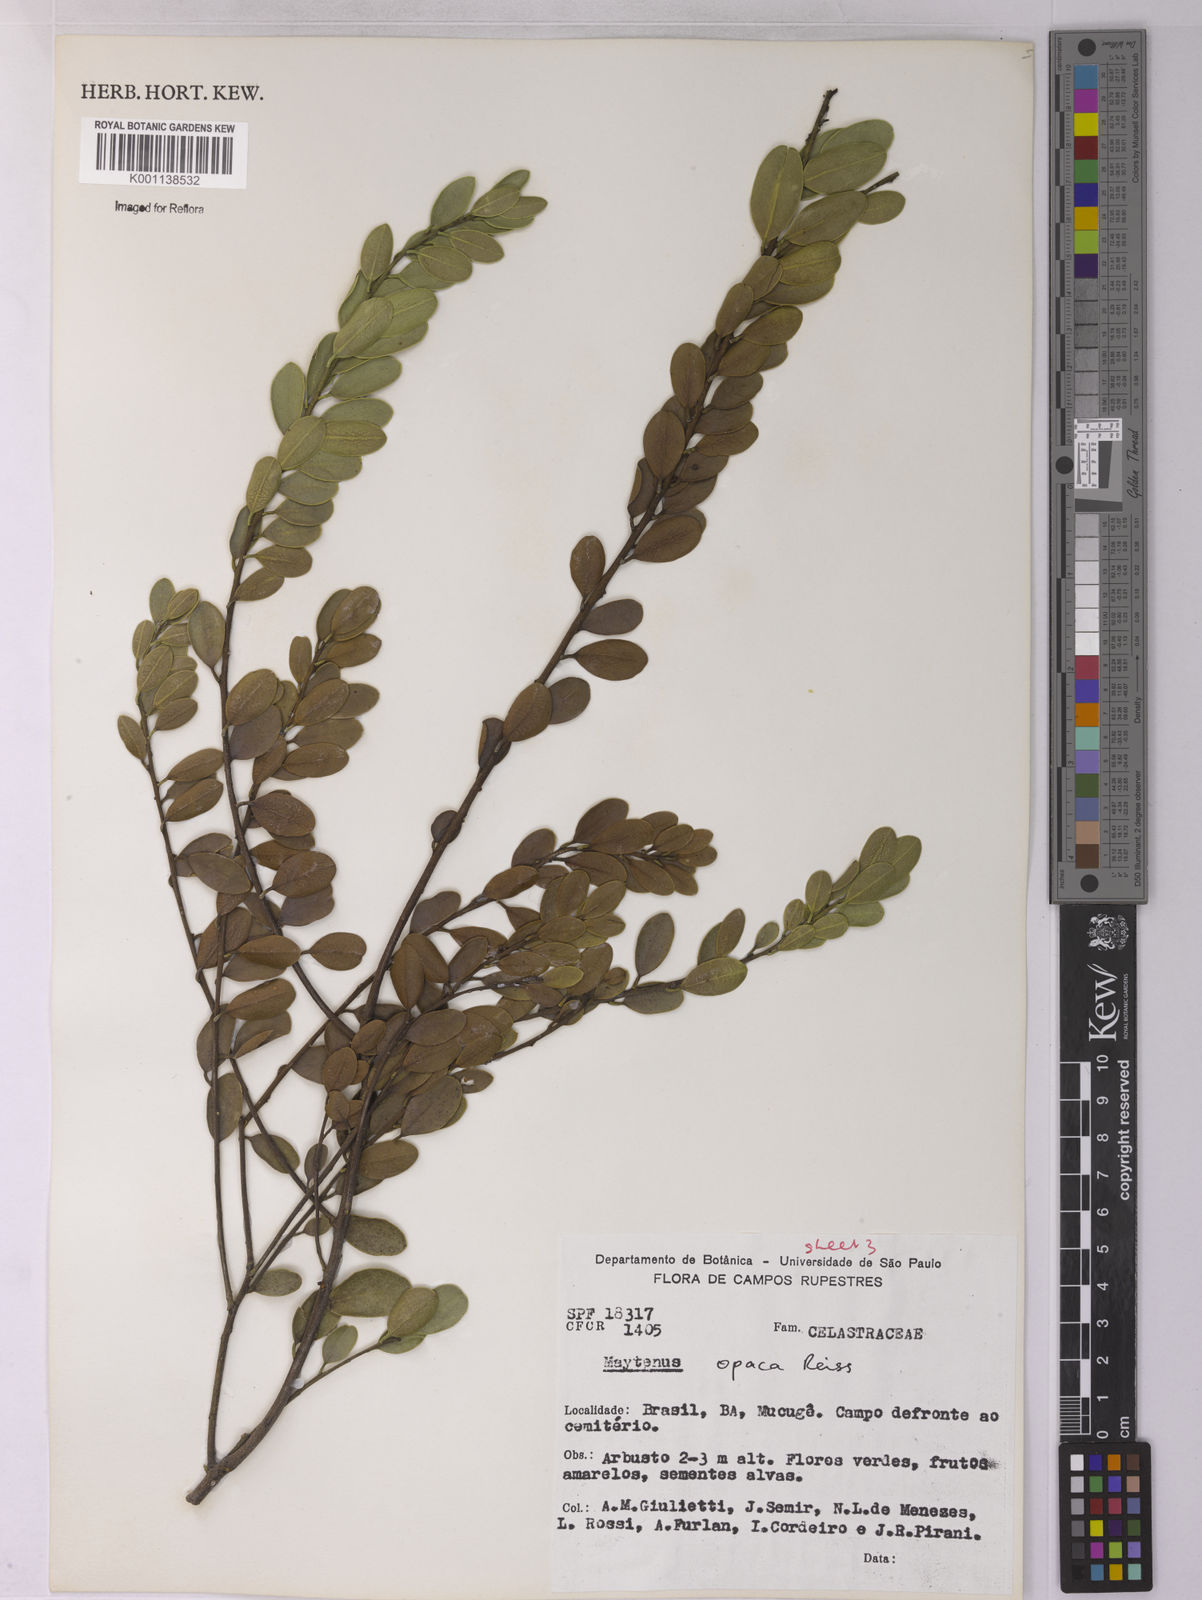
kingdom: Plantae
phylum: Tracheophyta
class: Magnoliopsida
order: Celastrales
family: Celastraceae
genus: Monteverdia
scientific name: Monteverdia opaca
